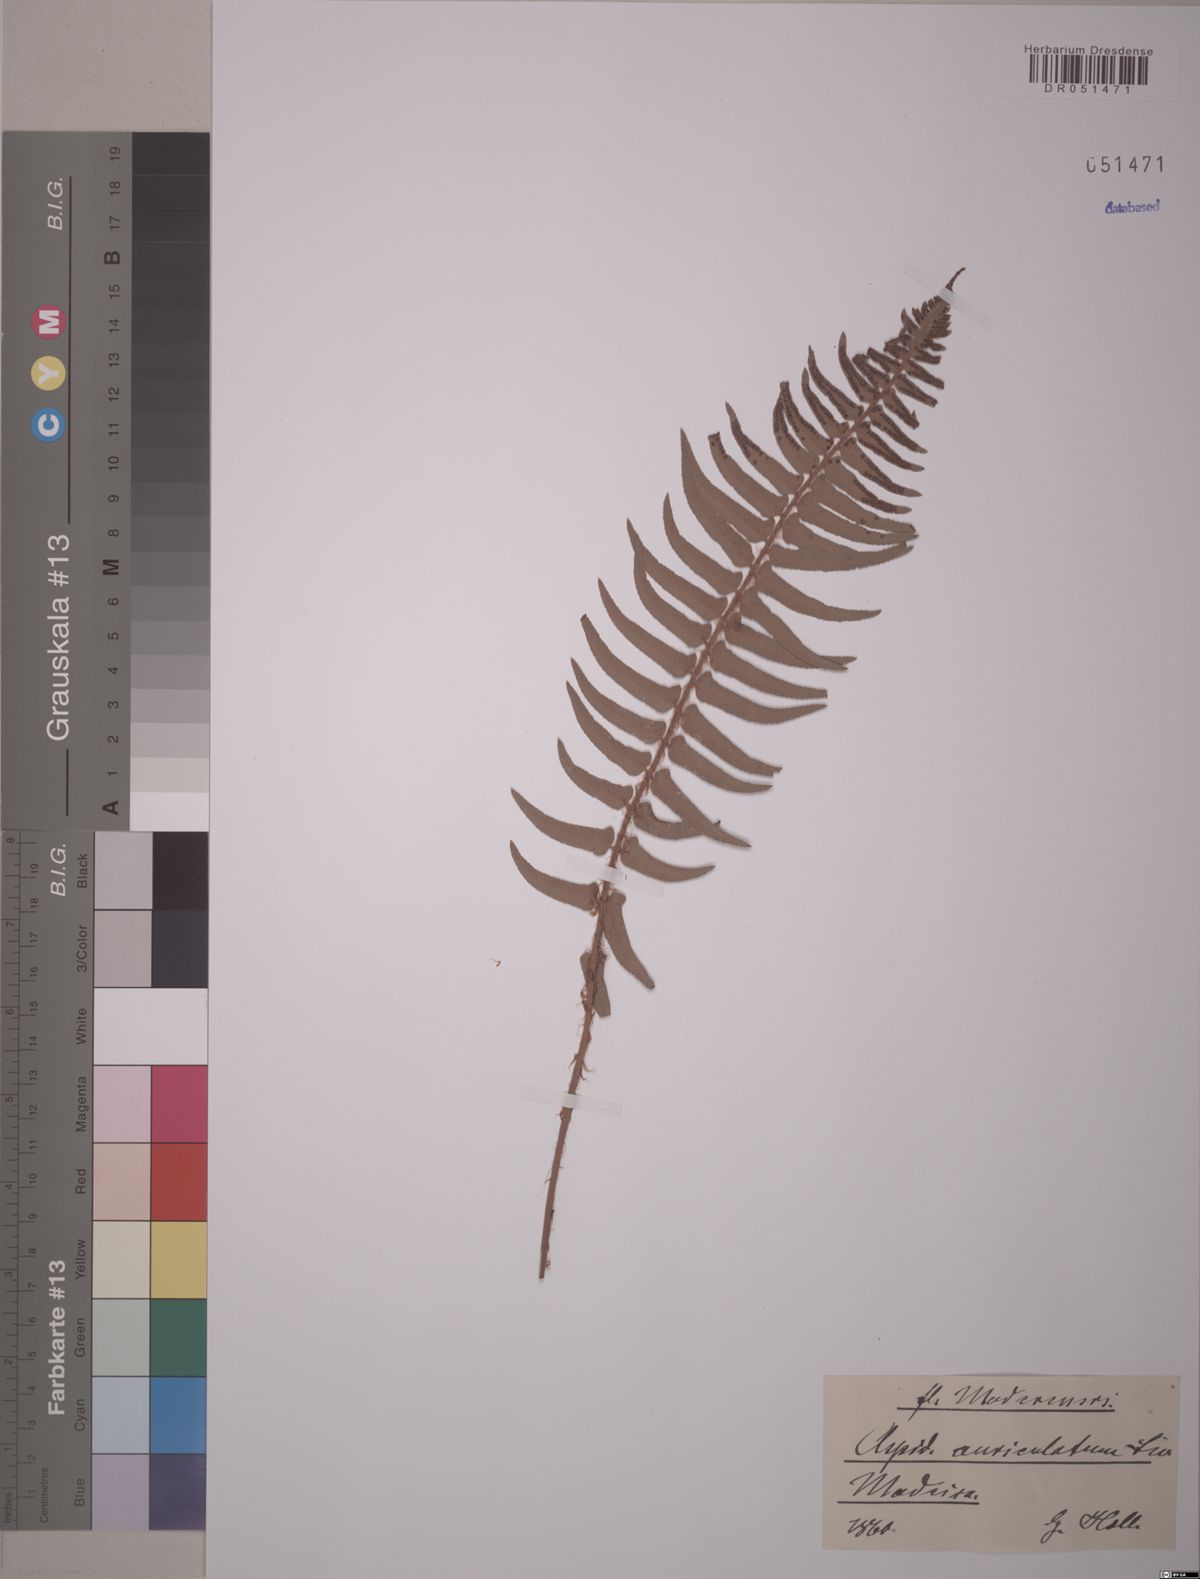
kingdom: Plantae
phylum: Tracheophyta
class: Polypodiopsida
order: Polypodiales
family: Nephrolepidaceae
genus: Nephrolepis
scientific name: Nephrolepis cordifolia
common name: Narrow swordfern
